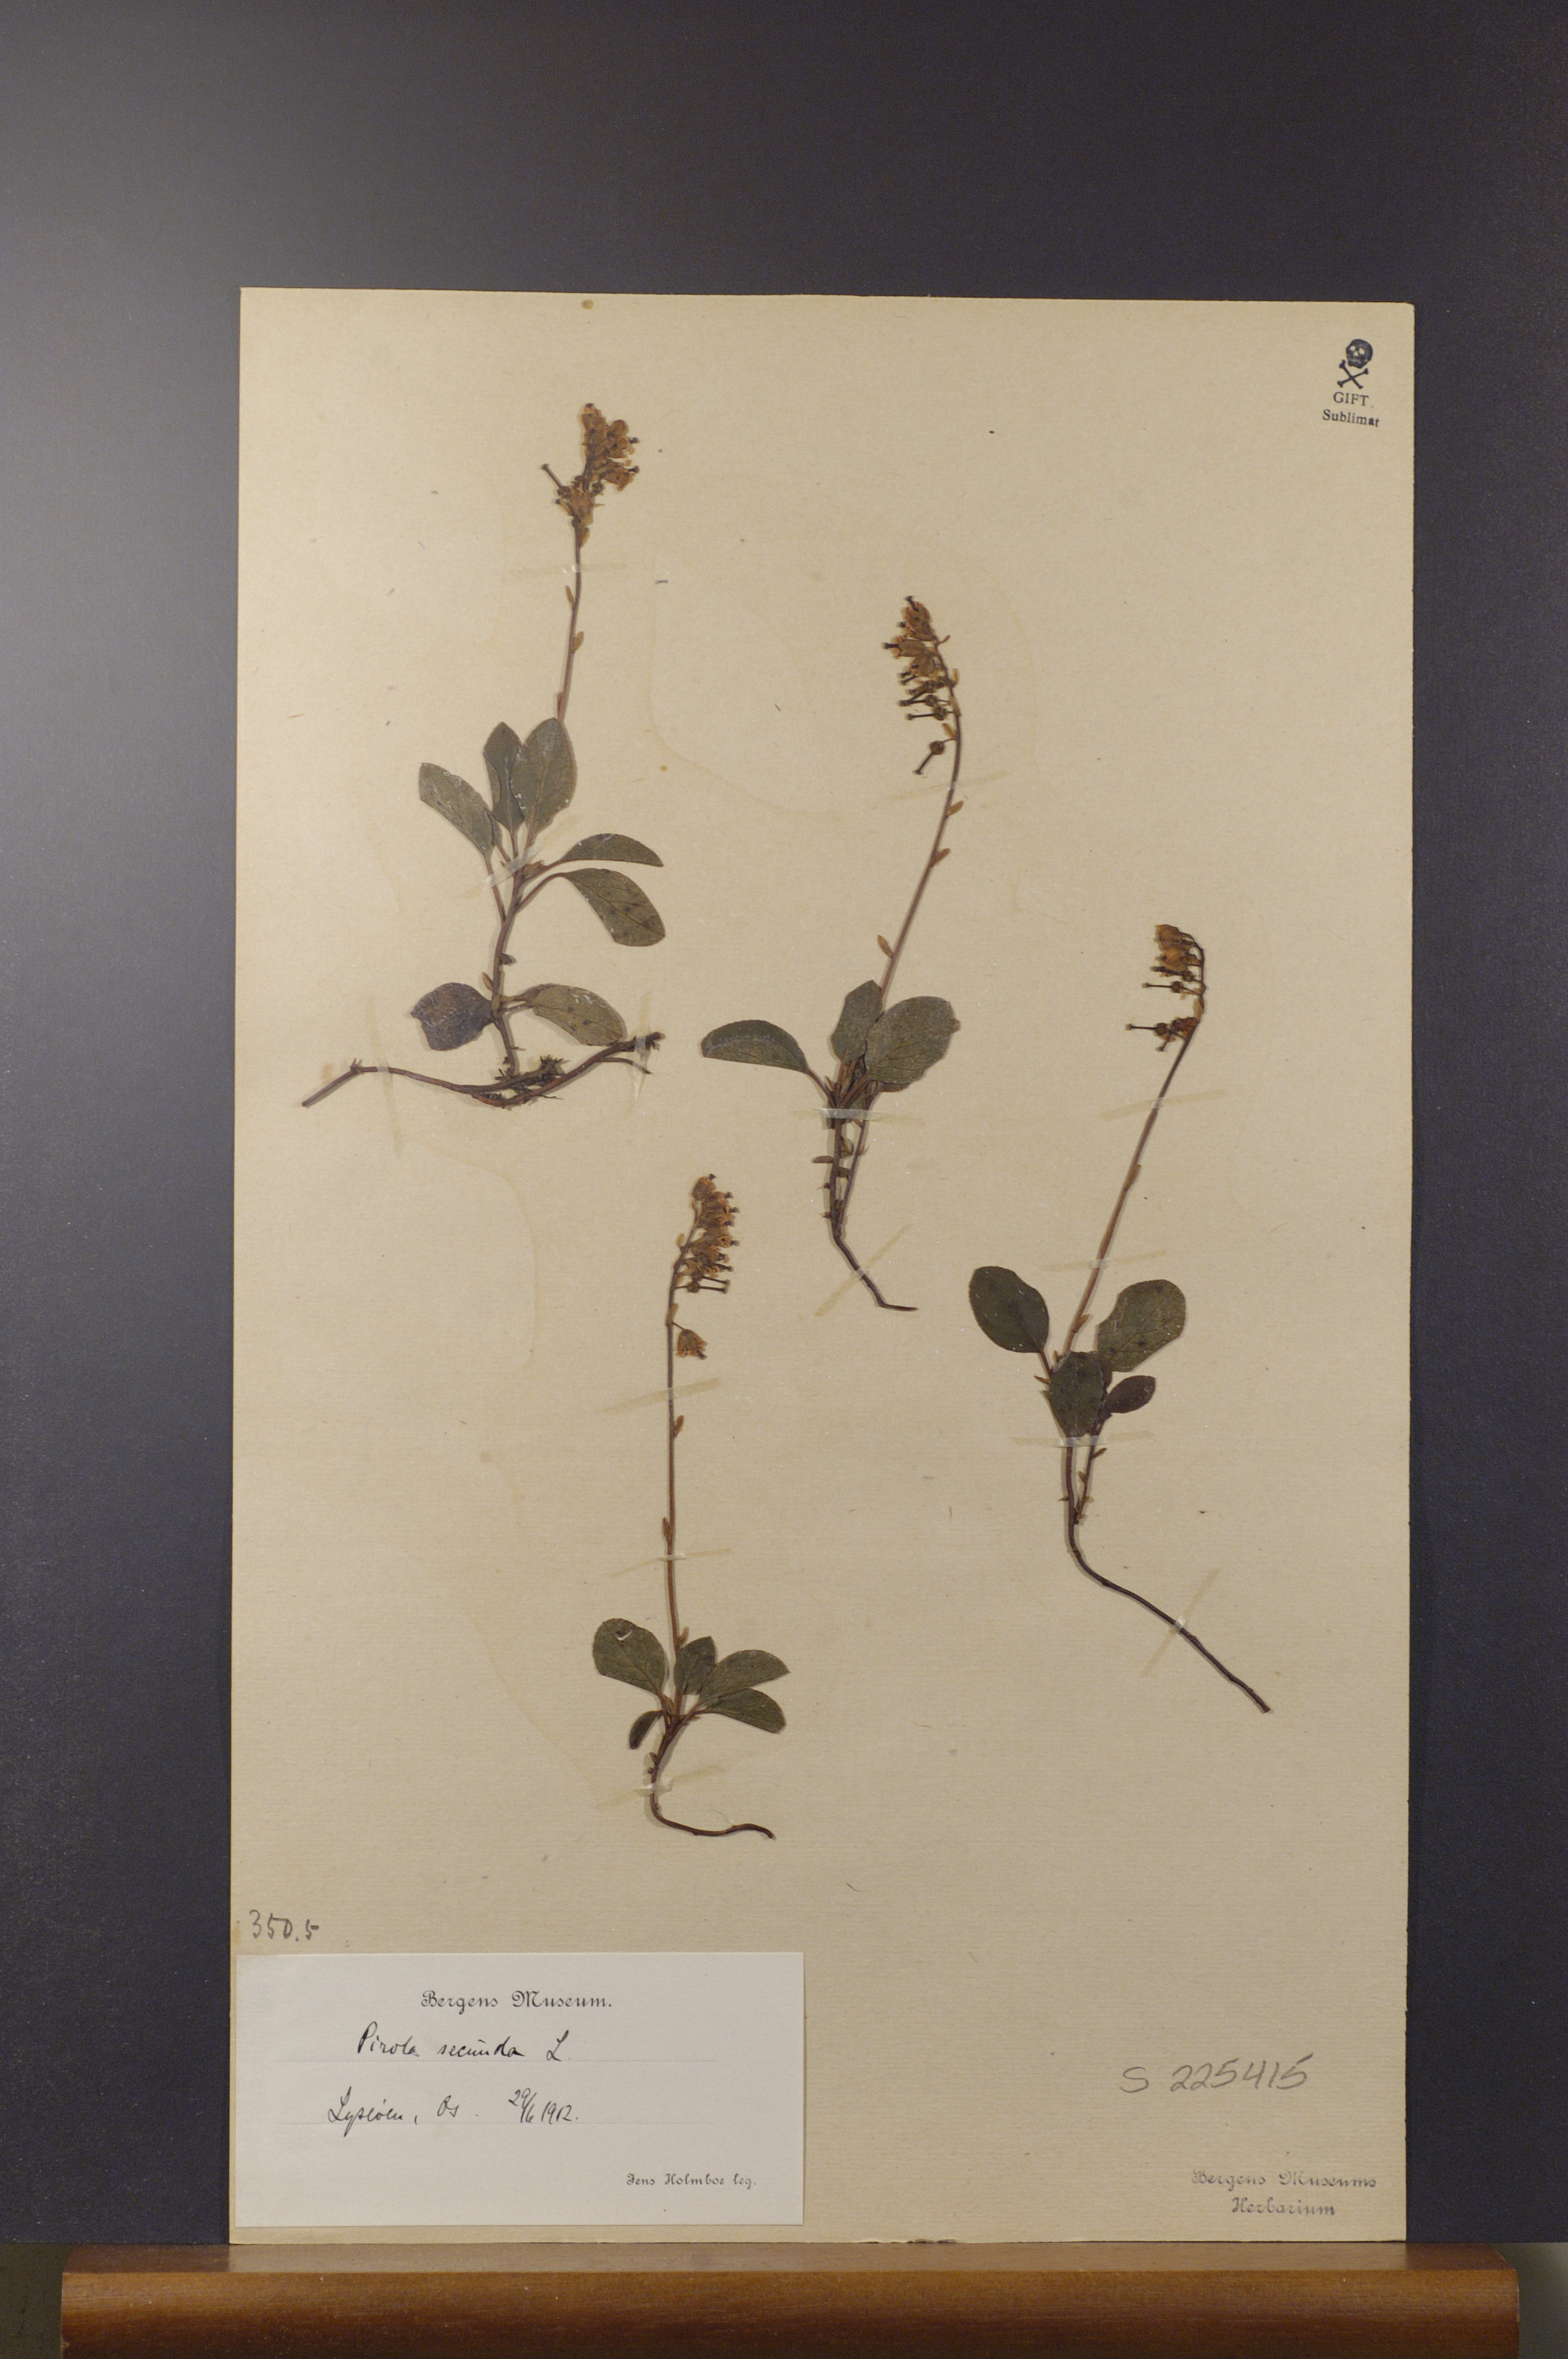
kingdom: Plantae
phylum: Tracheophyta
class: Magnoliopsida
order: Ericales
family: Ericaceae
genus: Orthilia
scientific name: Orthilia secunda
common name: One-sided orthilia
